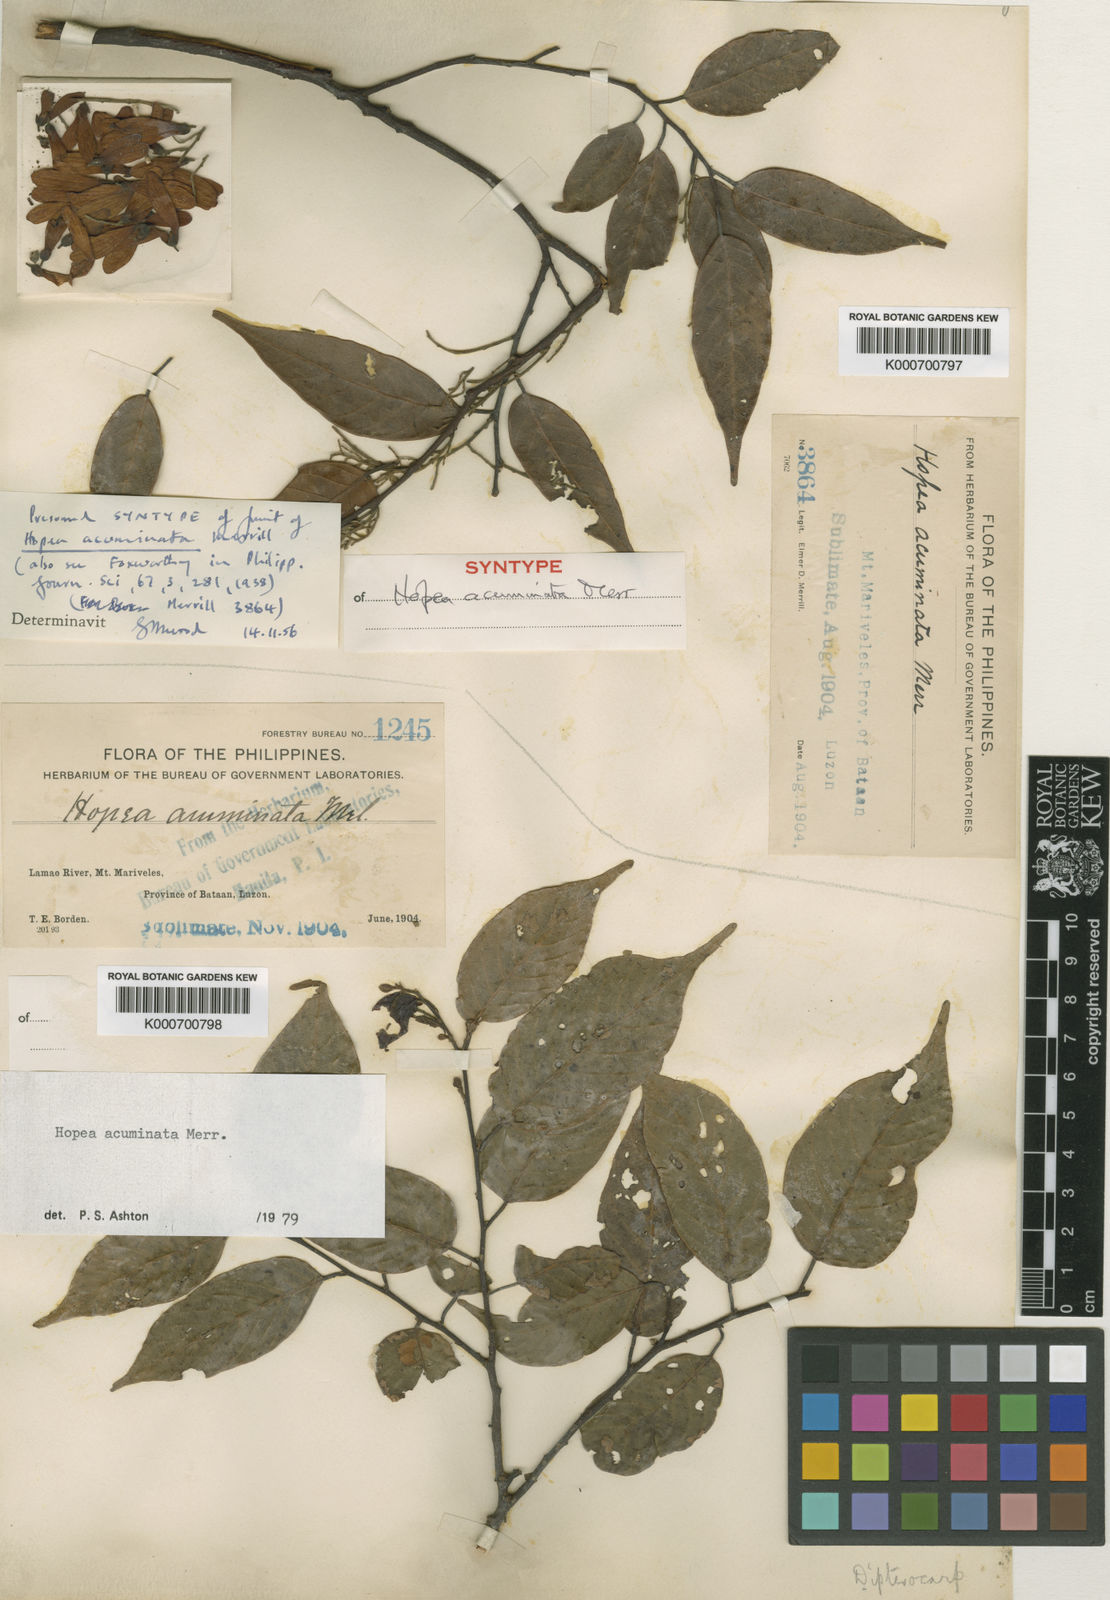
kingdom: Plantae
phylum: Tracheophyta
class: Magnoliopsida
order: Malvales
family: Dipterocarpaceae
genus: Hopea
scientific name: Hopea acuminata
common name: Dalingdingan
